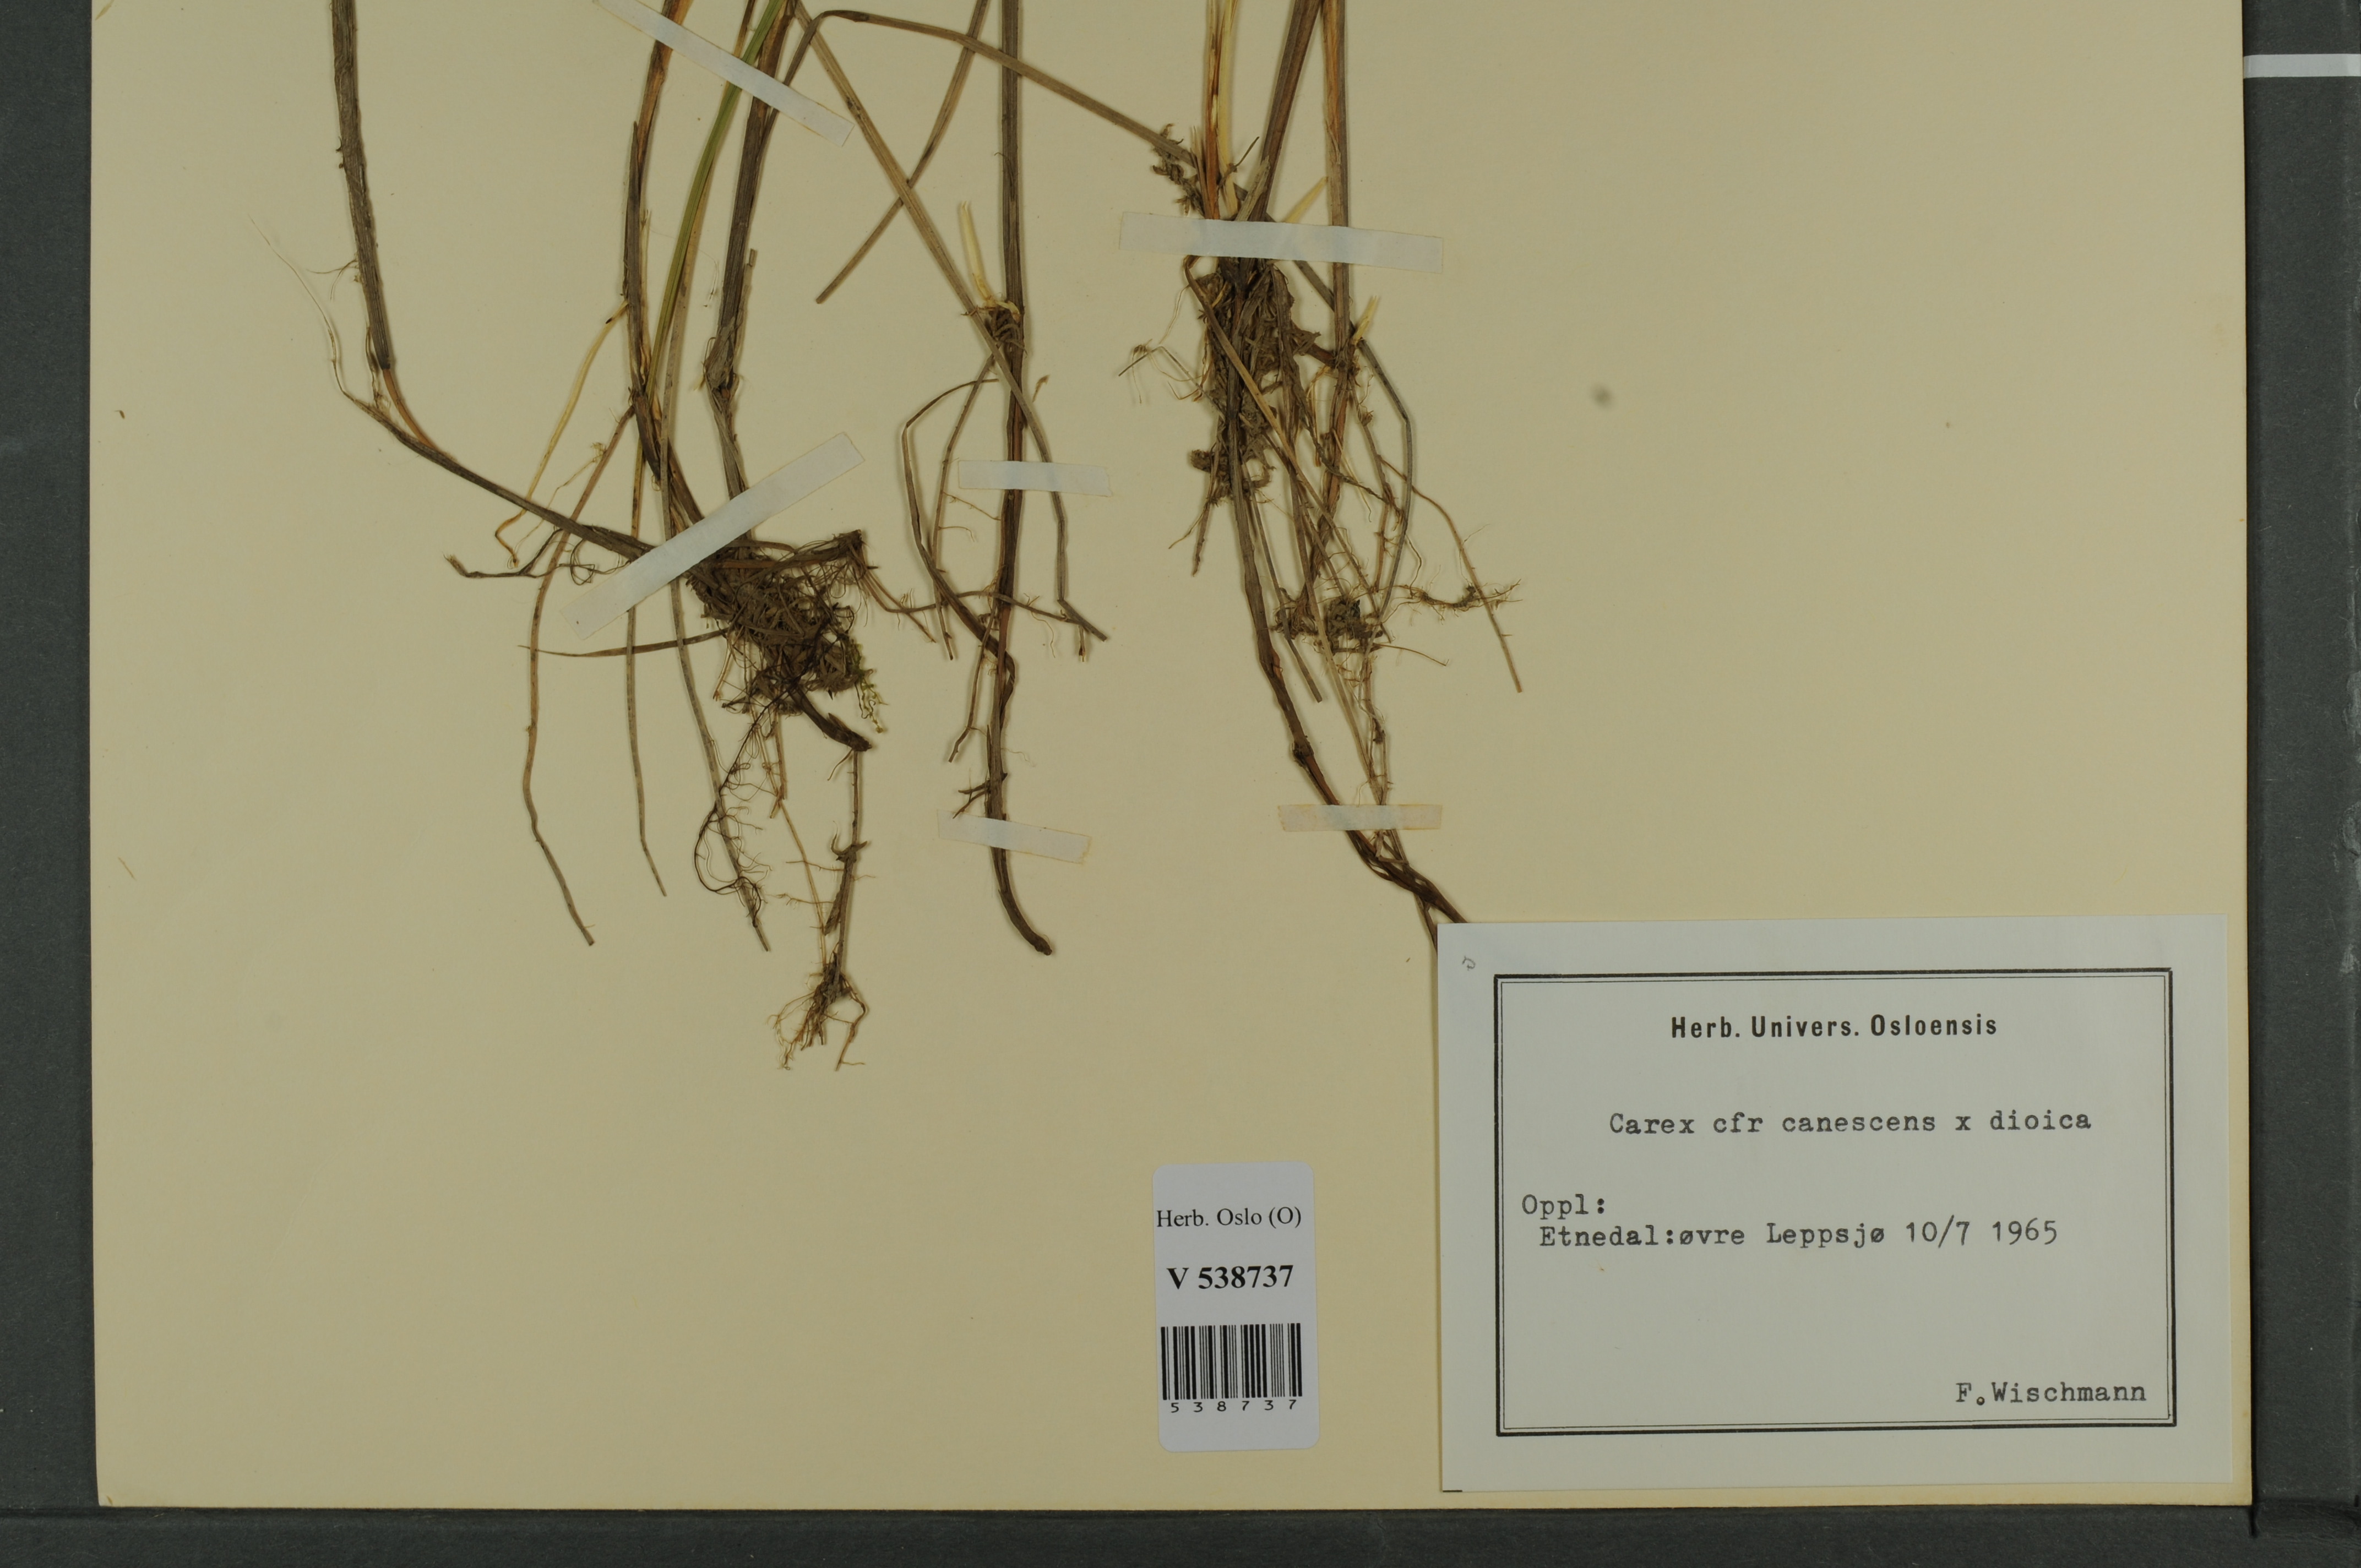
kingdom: Plantae
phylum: Tracheophyta
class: Liliopsida
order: Poales
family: Cyperaceae
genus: Carex
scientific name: Carex
